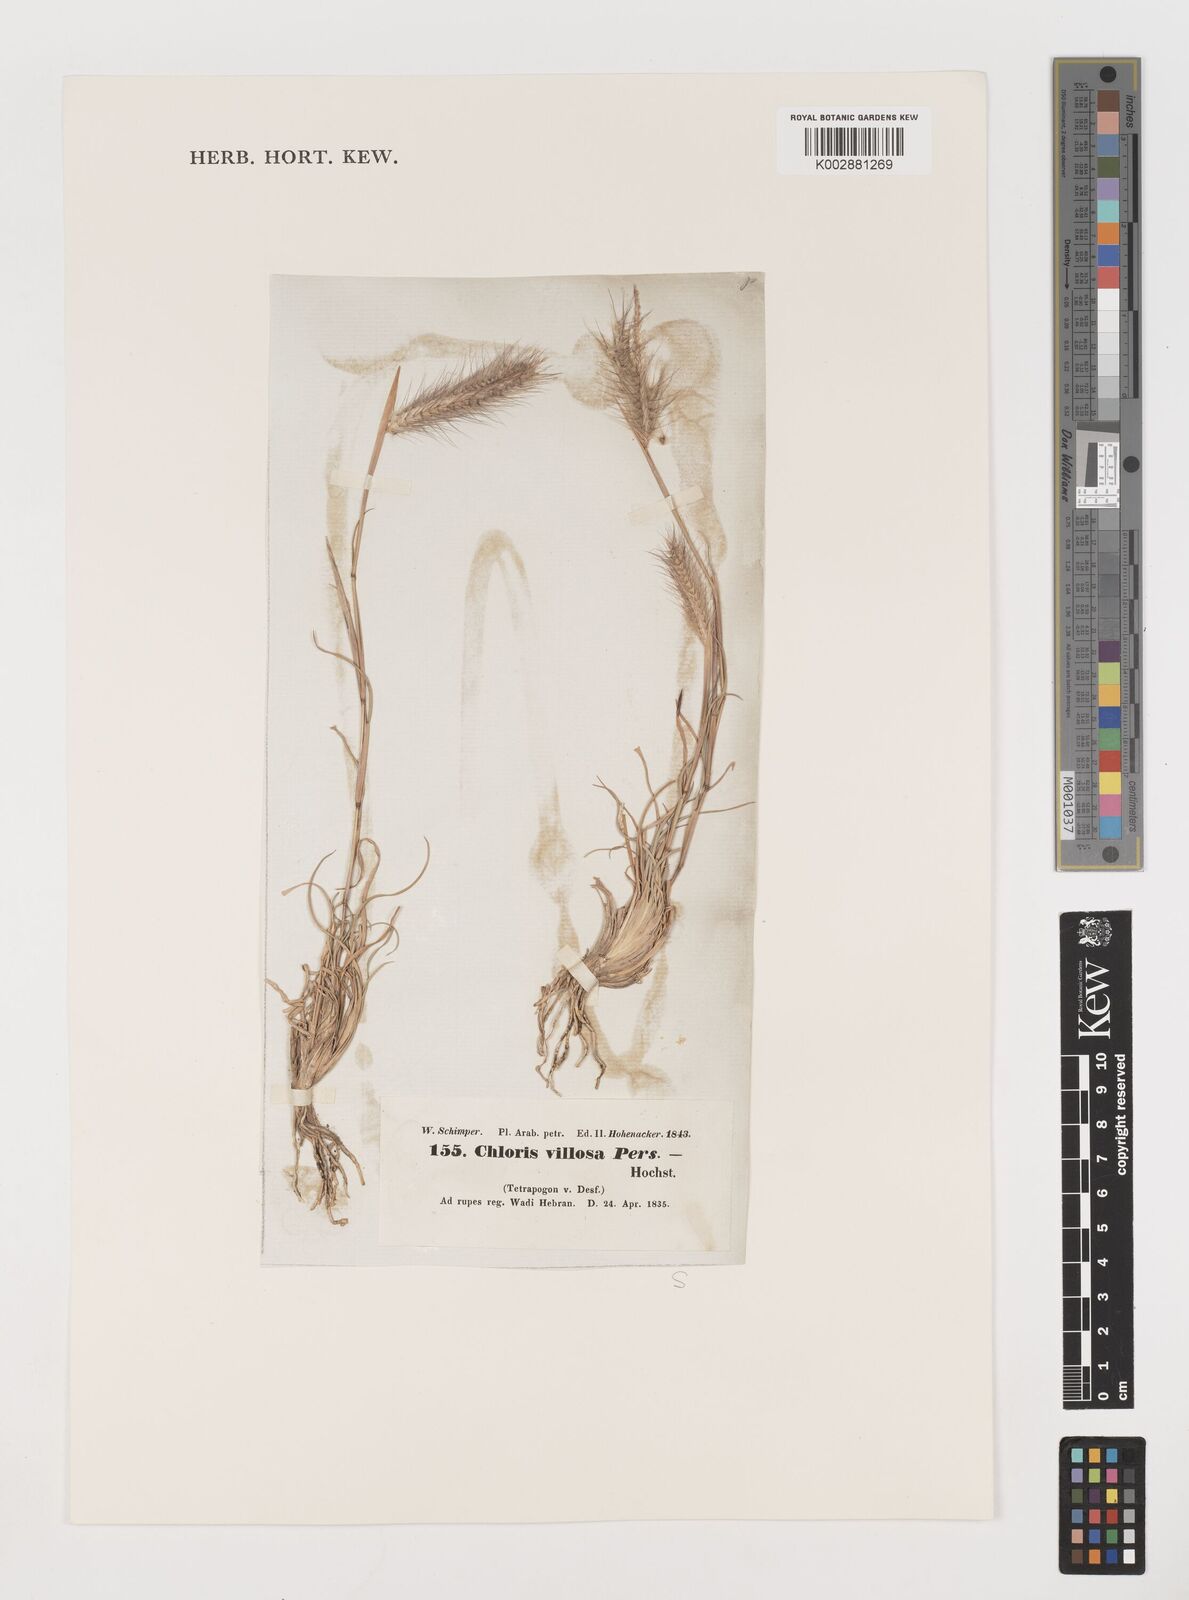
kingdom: Plantae
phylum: Tracheophyta
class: Liliopsida
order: Poales
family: Poaceae
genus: Tetrapogon
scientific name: Tetrapogon villosus
